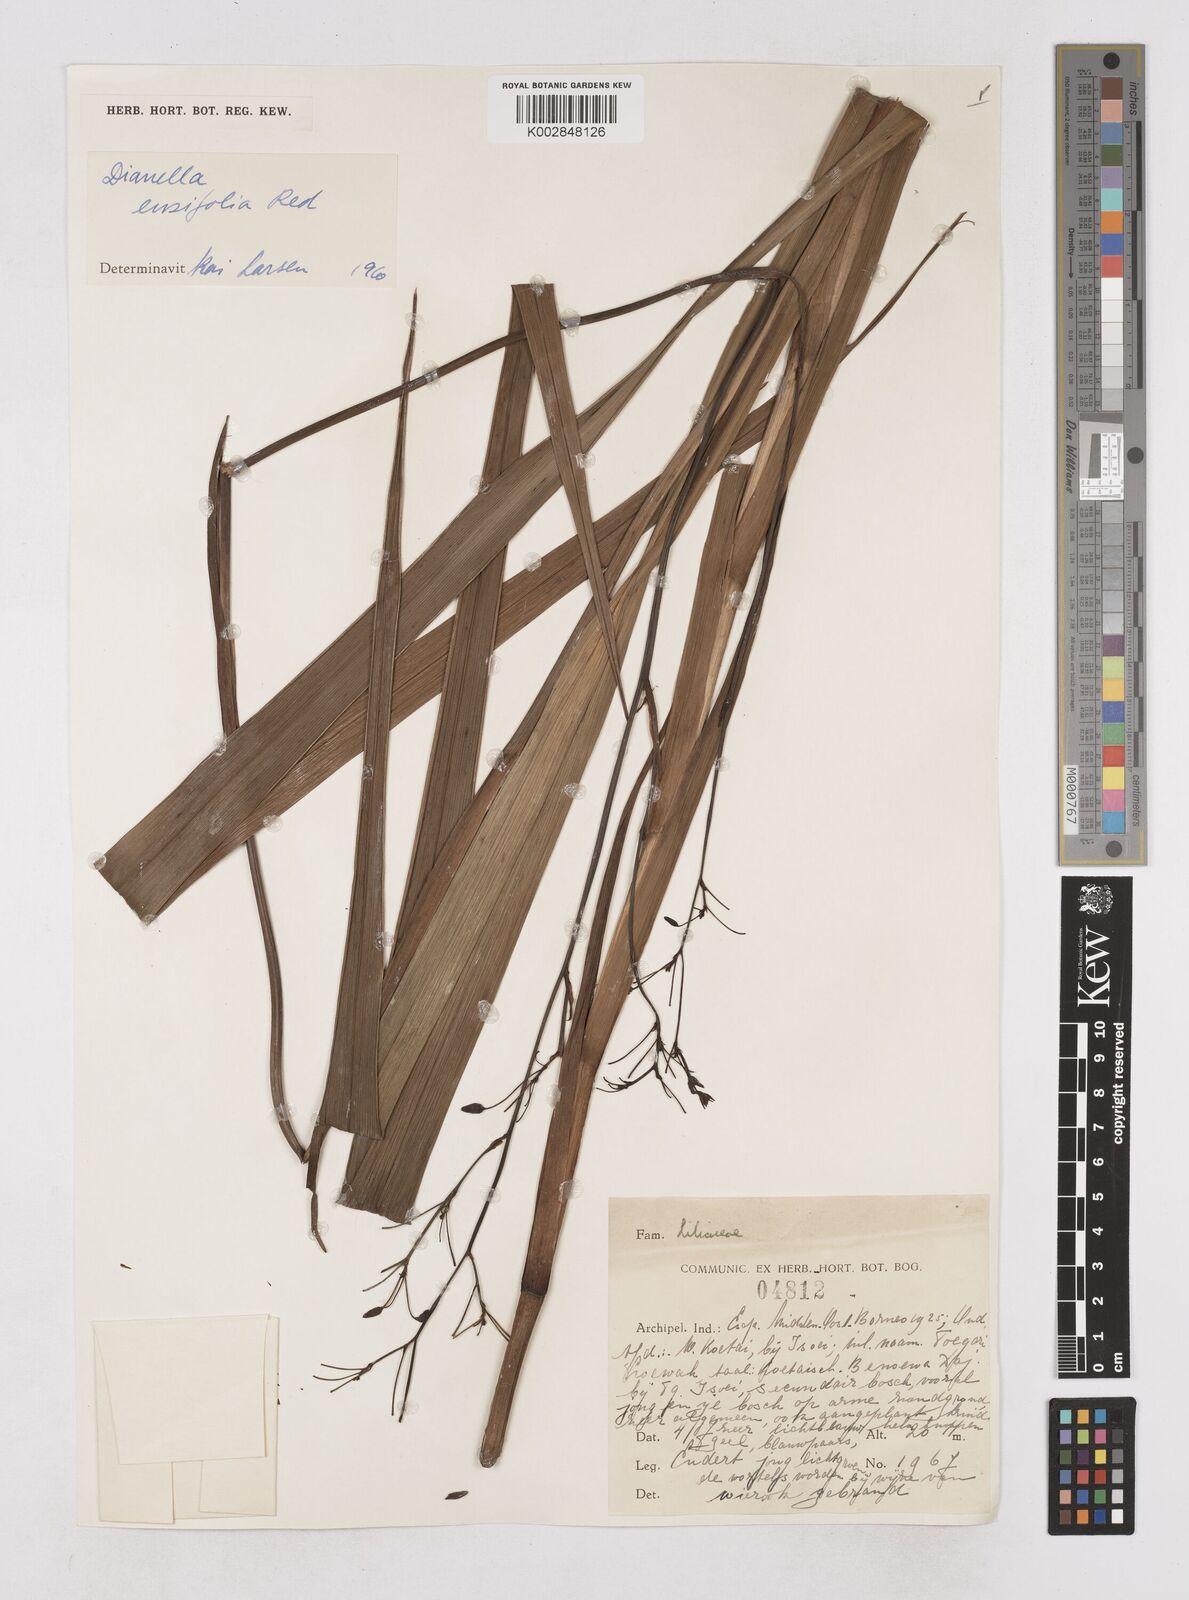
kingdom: Plantae
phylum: Tracheophyta
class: Liliopsida
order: Asparagales
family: Asphodelaceae
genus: Dianella
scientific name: Dianella ensifolia
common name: New zealand lilyplant
